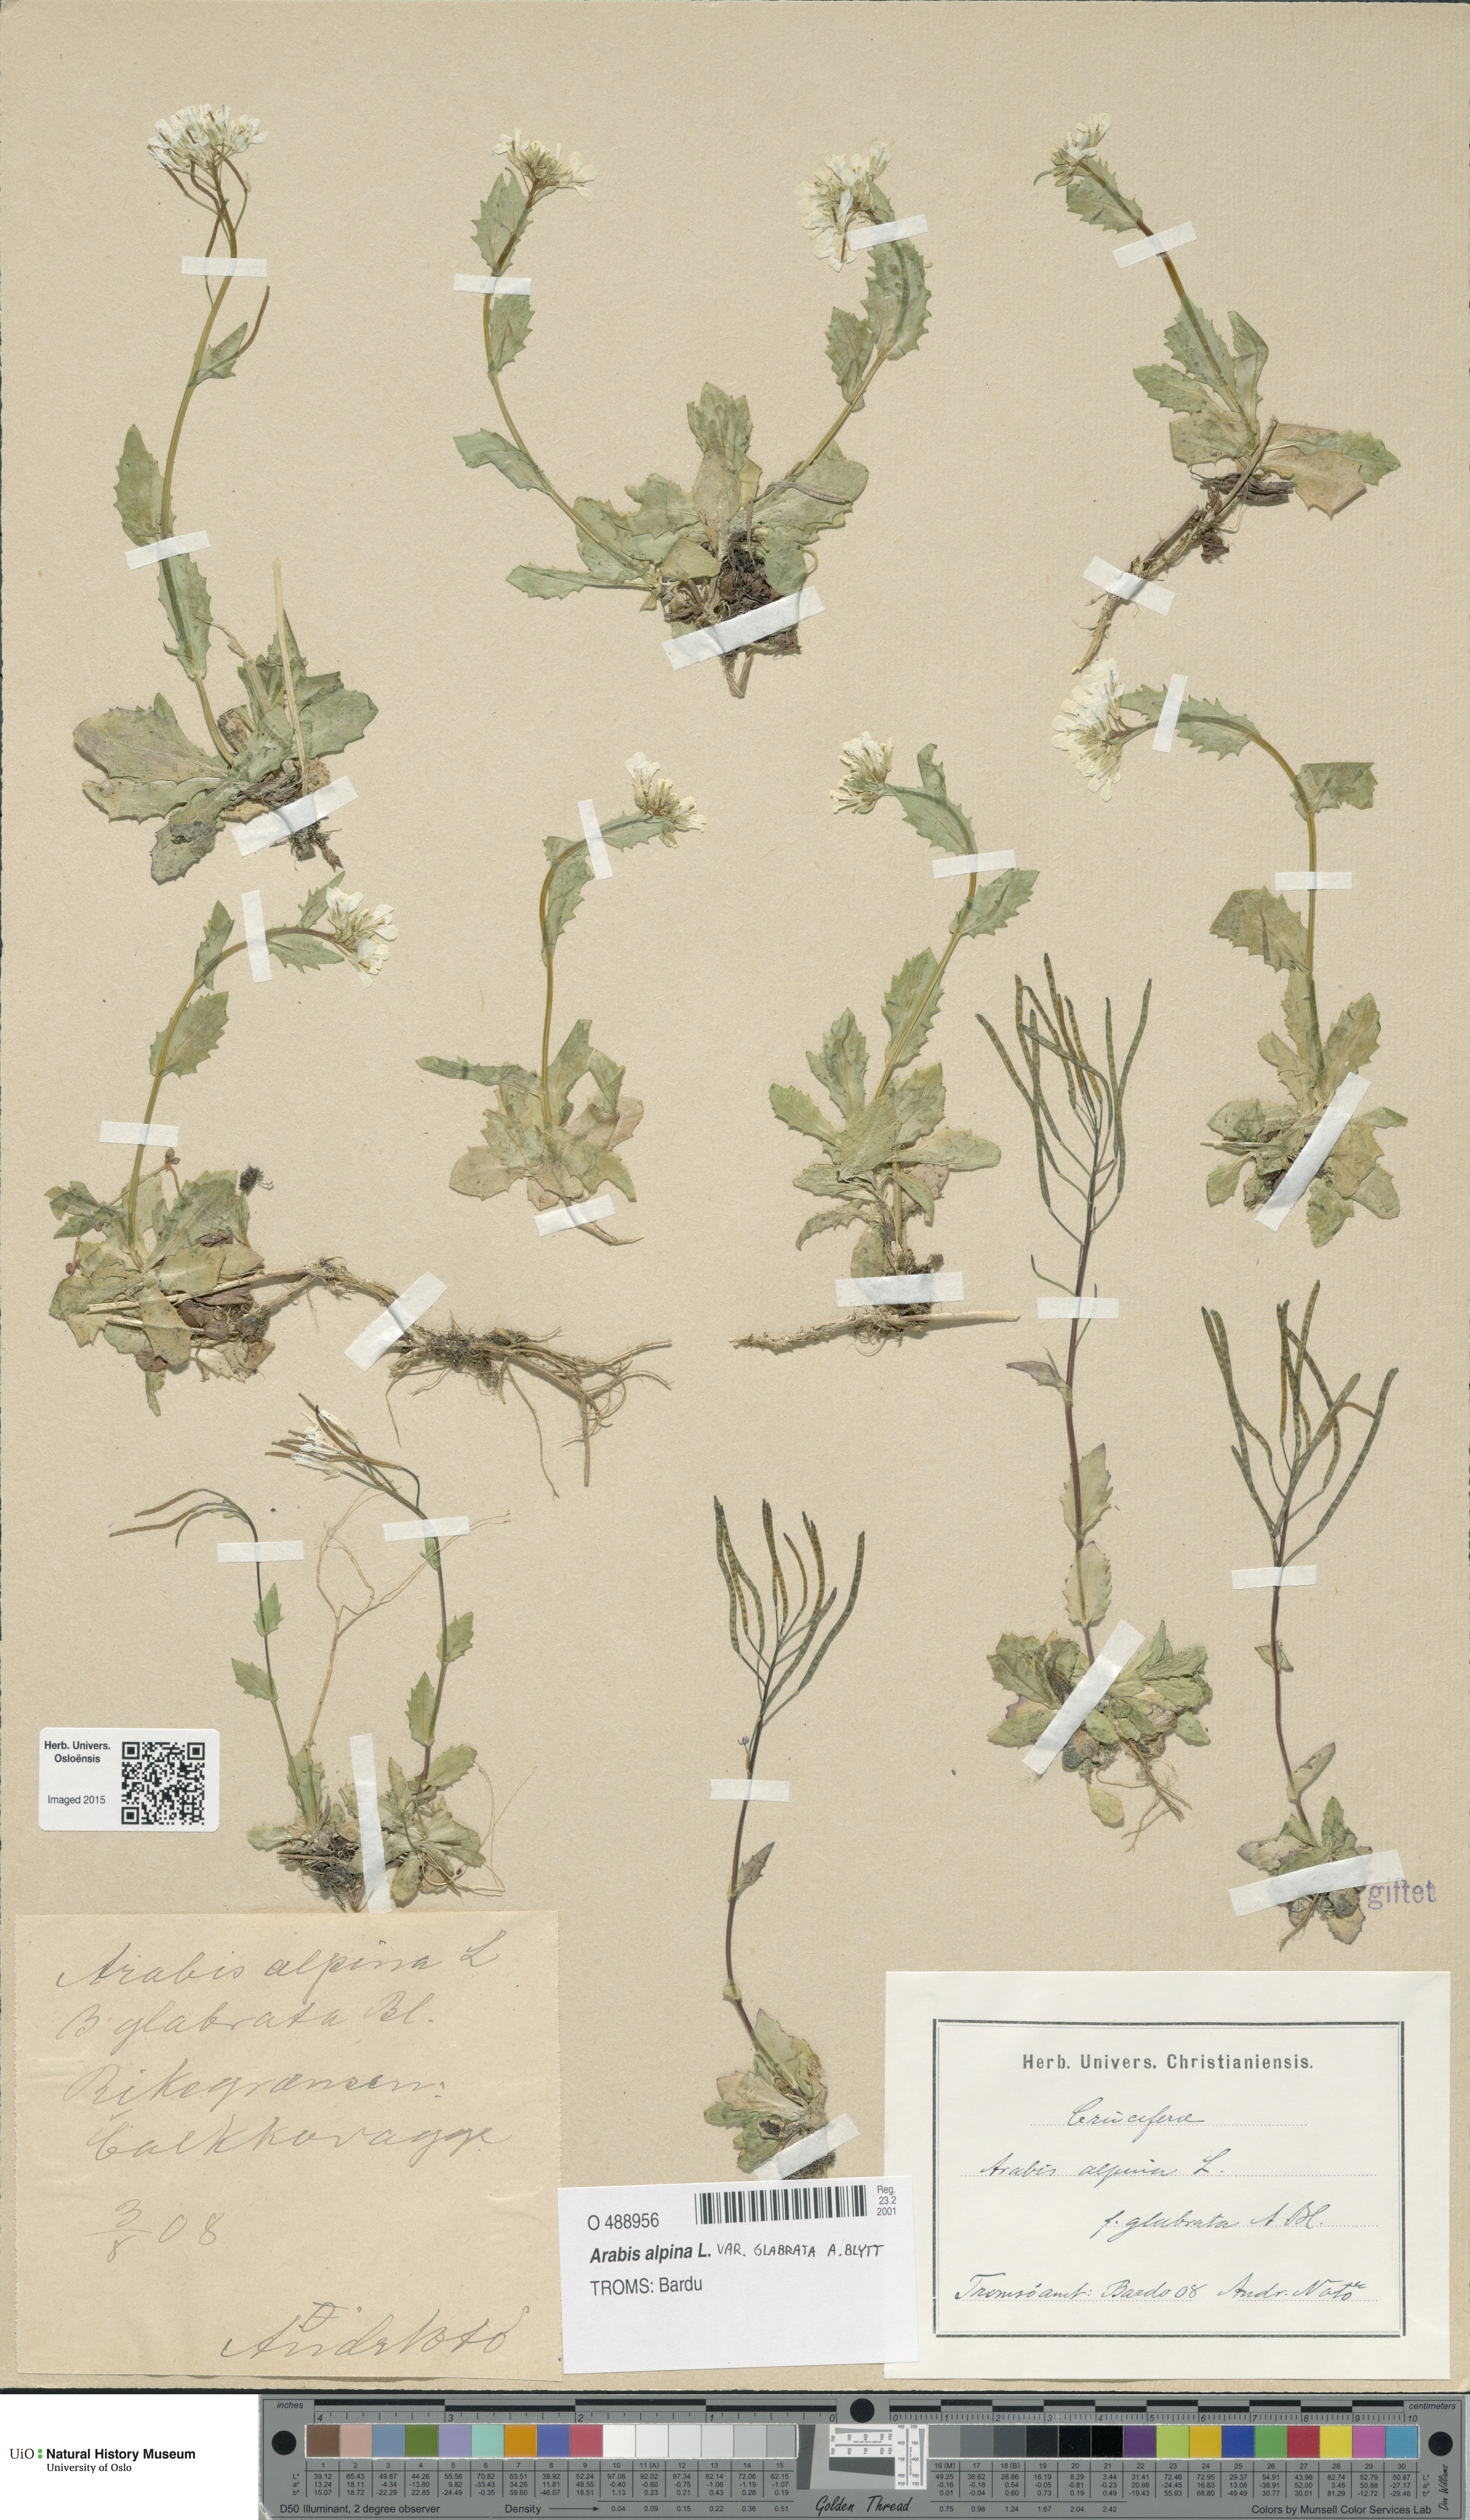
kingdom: Plantae
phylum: Tracheophyta
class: Magnoliopsida
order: Brassicales
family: Brassicaceae
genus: Arabis
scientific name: Arabis alpina
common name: Alpine rock-cress
